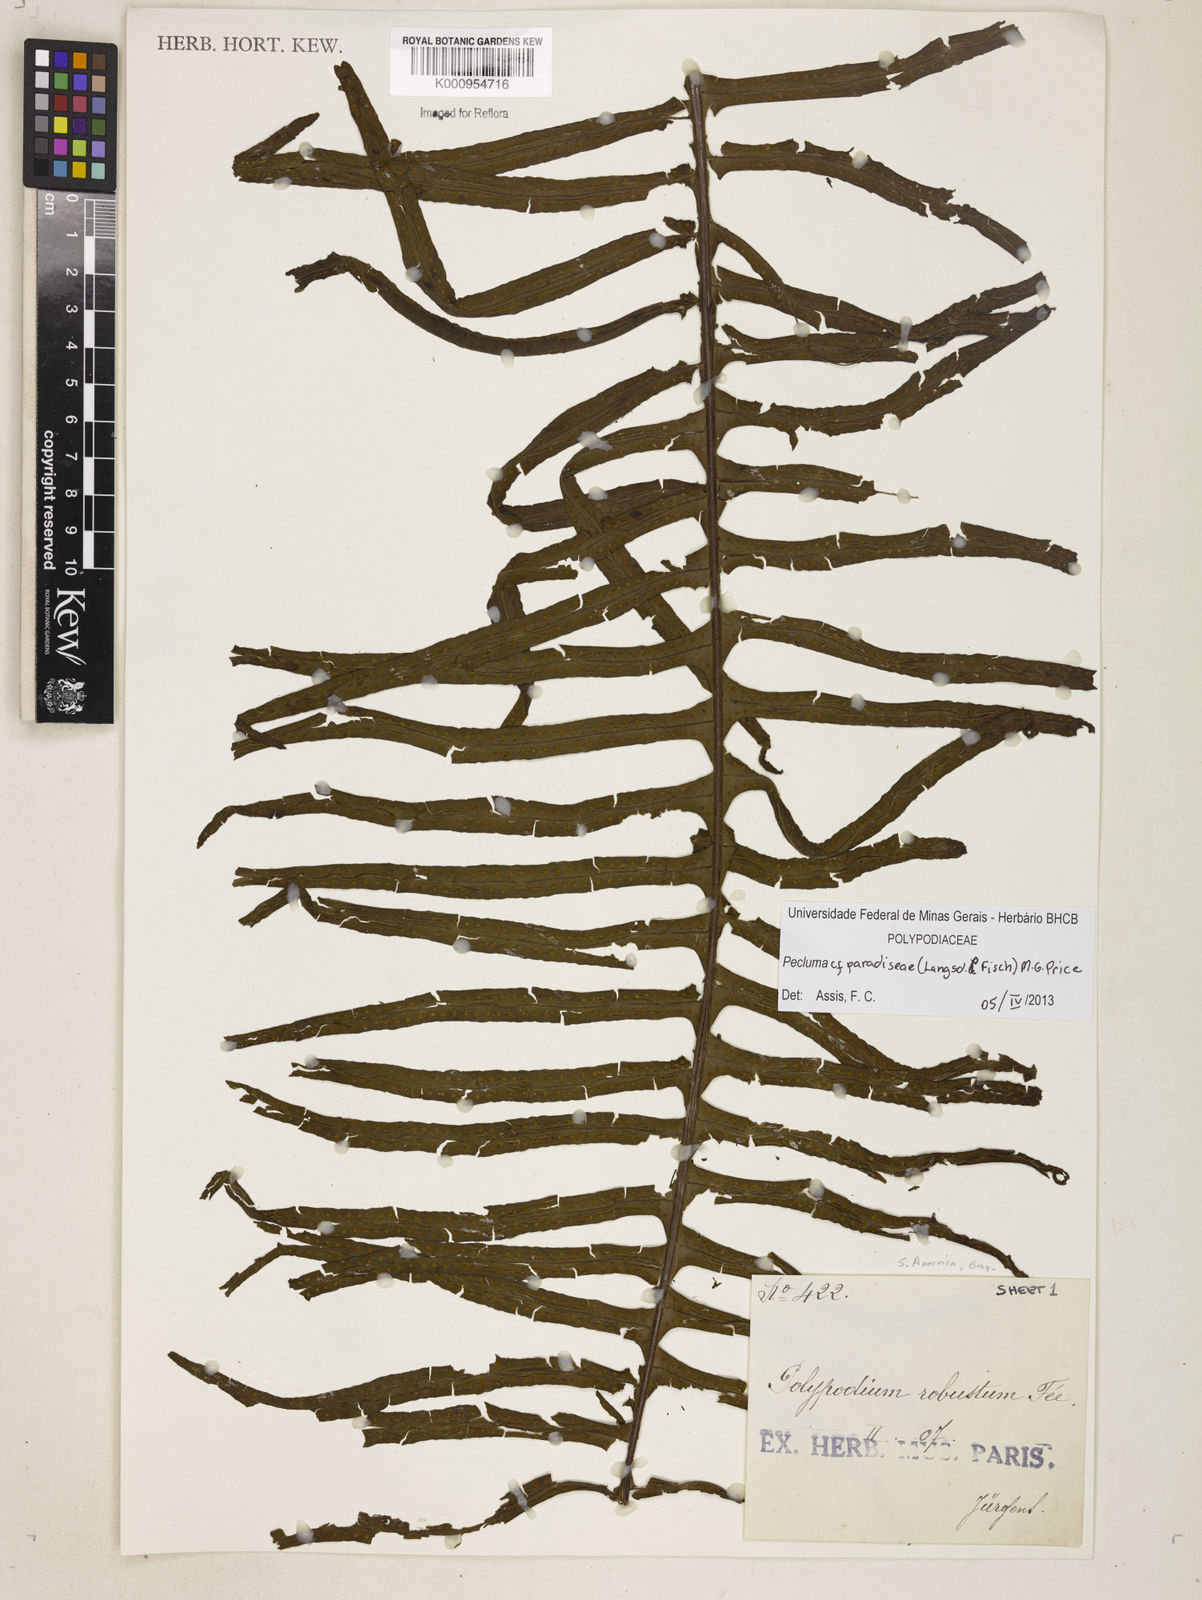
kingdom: Plantae
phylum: Tracheophyta
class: Polypodiopsida
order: Polypodiales
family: Polypodiaceae
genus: Pecluma
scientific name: Pecluma paradiseae
